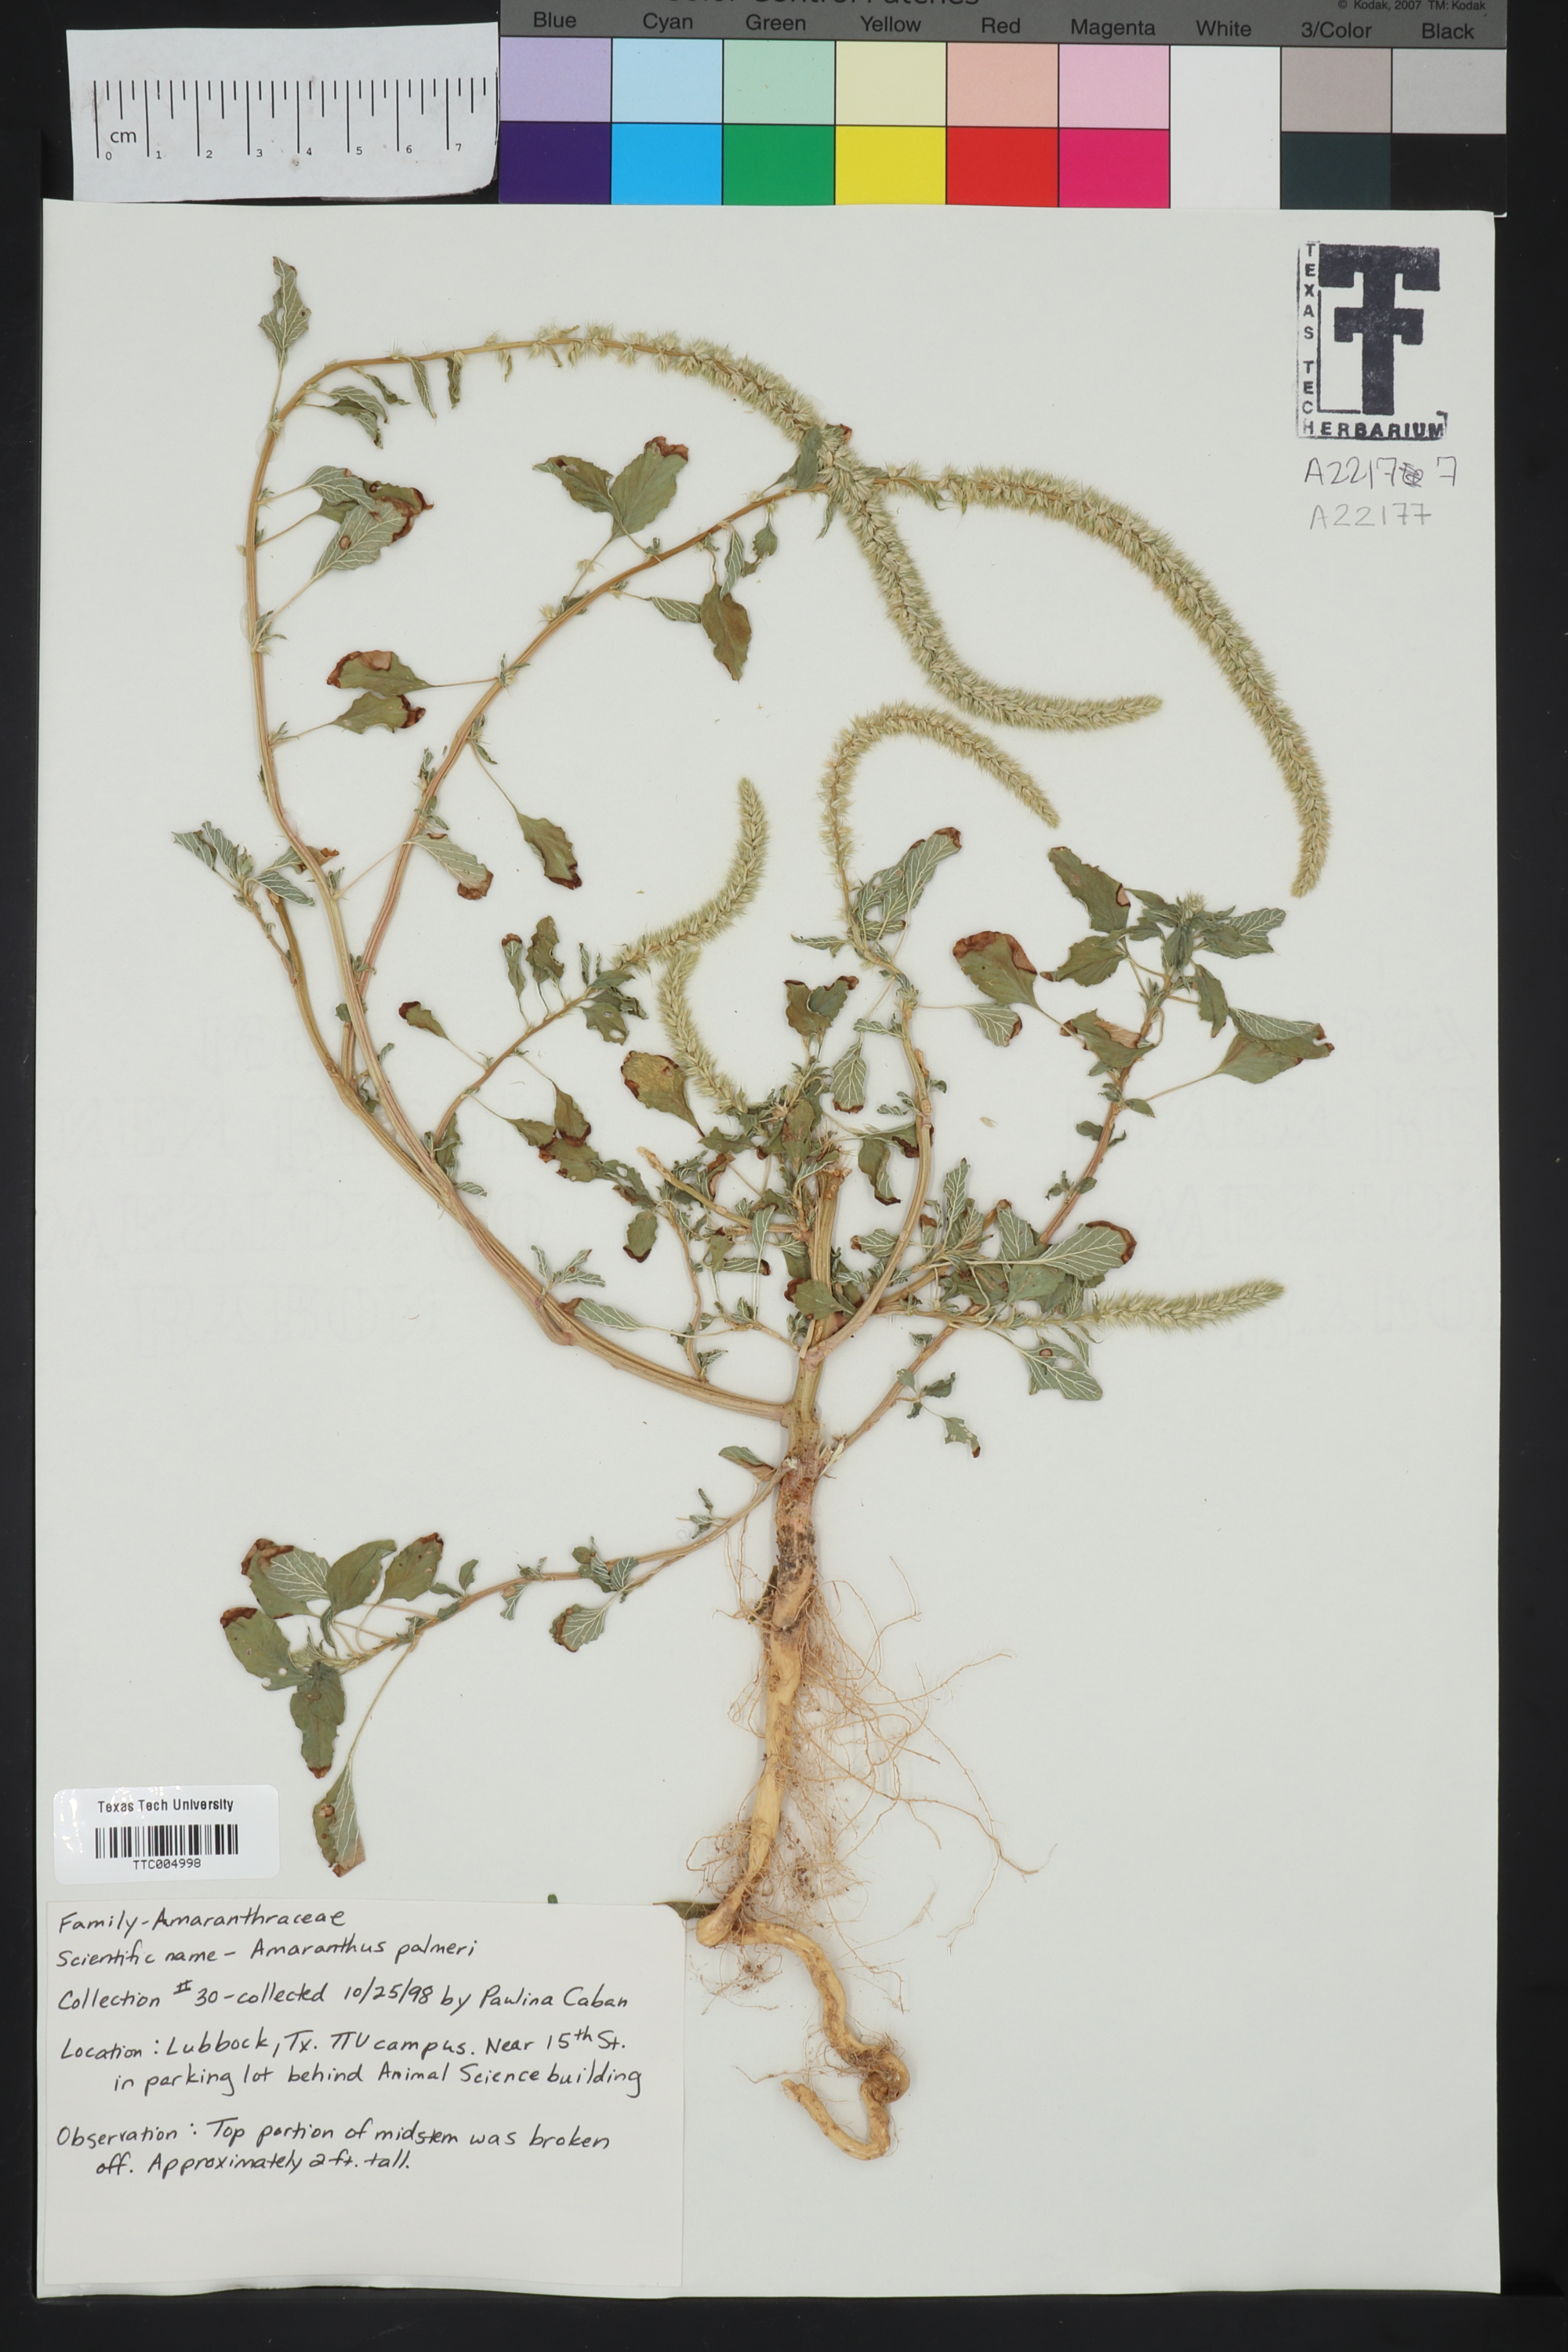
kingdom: Plantae
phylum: Tracheophyta
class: Magnoliopsida
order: Caryophyllales
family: Amaranthaceae
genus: Amaranthus
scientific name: Amaranthus palmeri
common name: Dioecious amaranth
